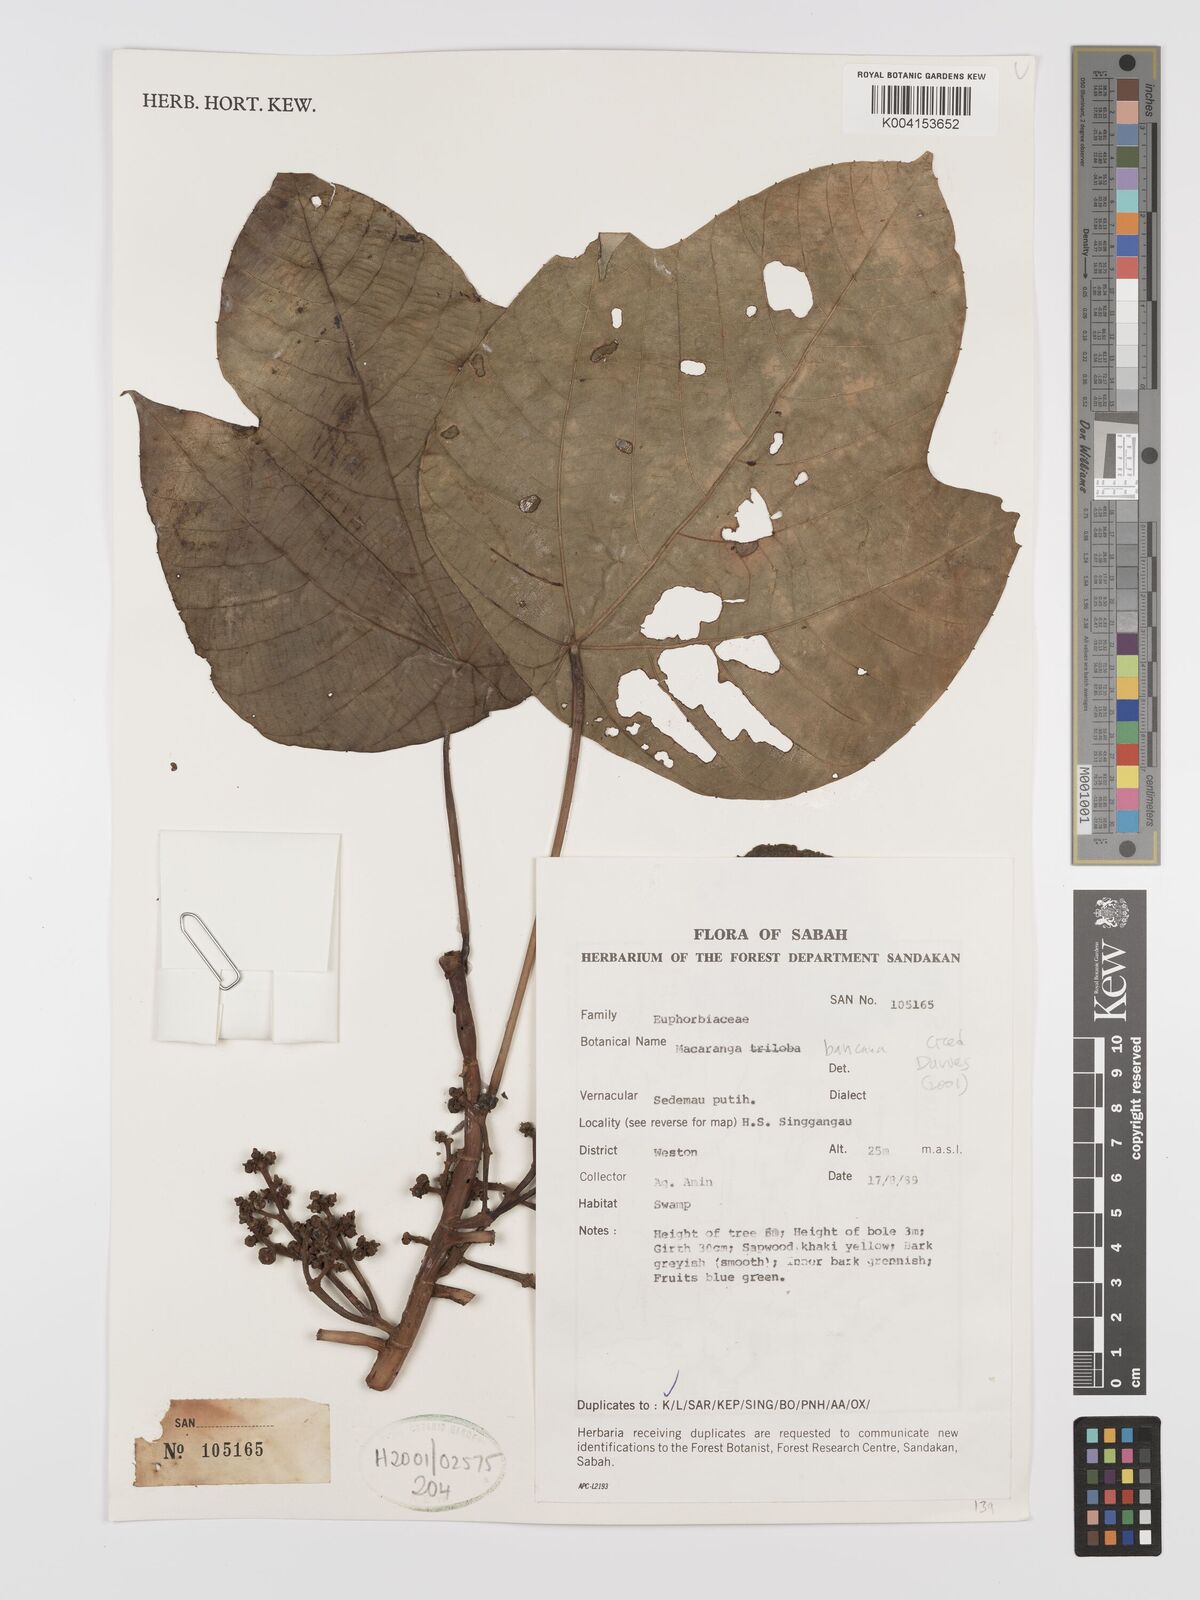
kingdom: Plantae
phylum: Tracheophyta
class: Magnoliopsida
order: Malpighiales
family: Euphorbiaceae
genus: Macaranga
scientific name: Macaranga triloba
